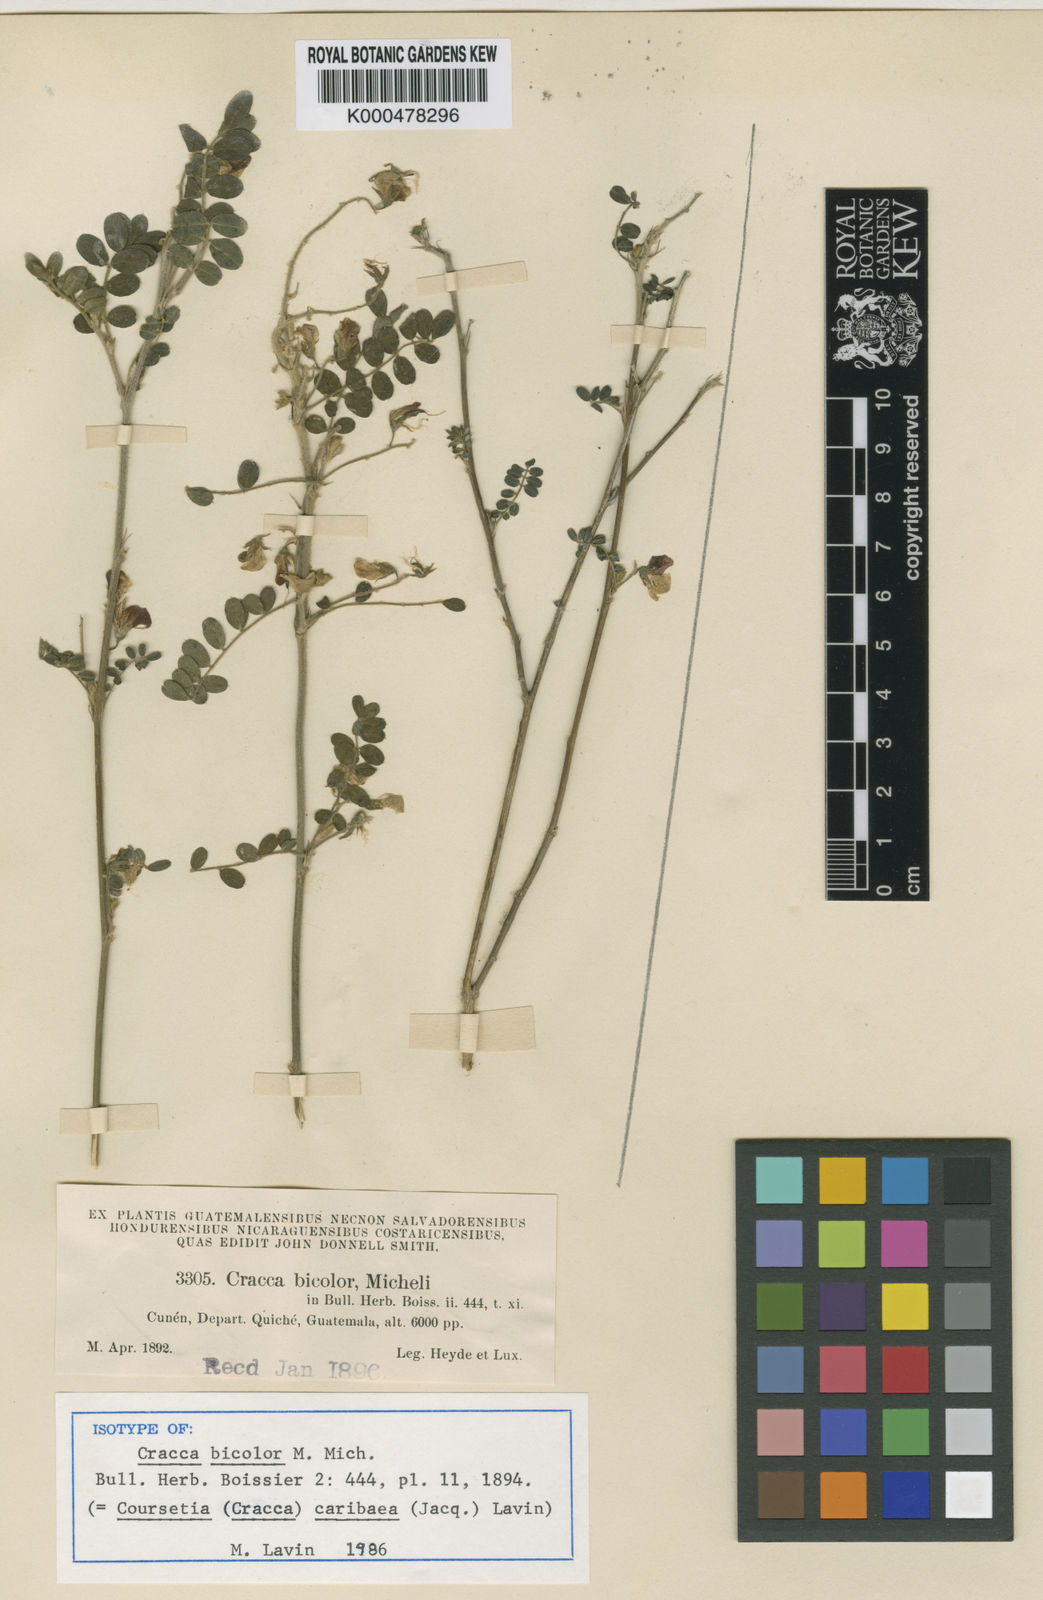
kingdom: Plantae
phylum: Tracheophyta
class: Magnoliopsida
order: Fabales
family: Fabaceae
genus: Coursetia
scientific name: Coursetia caribaea
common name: Anil falso
